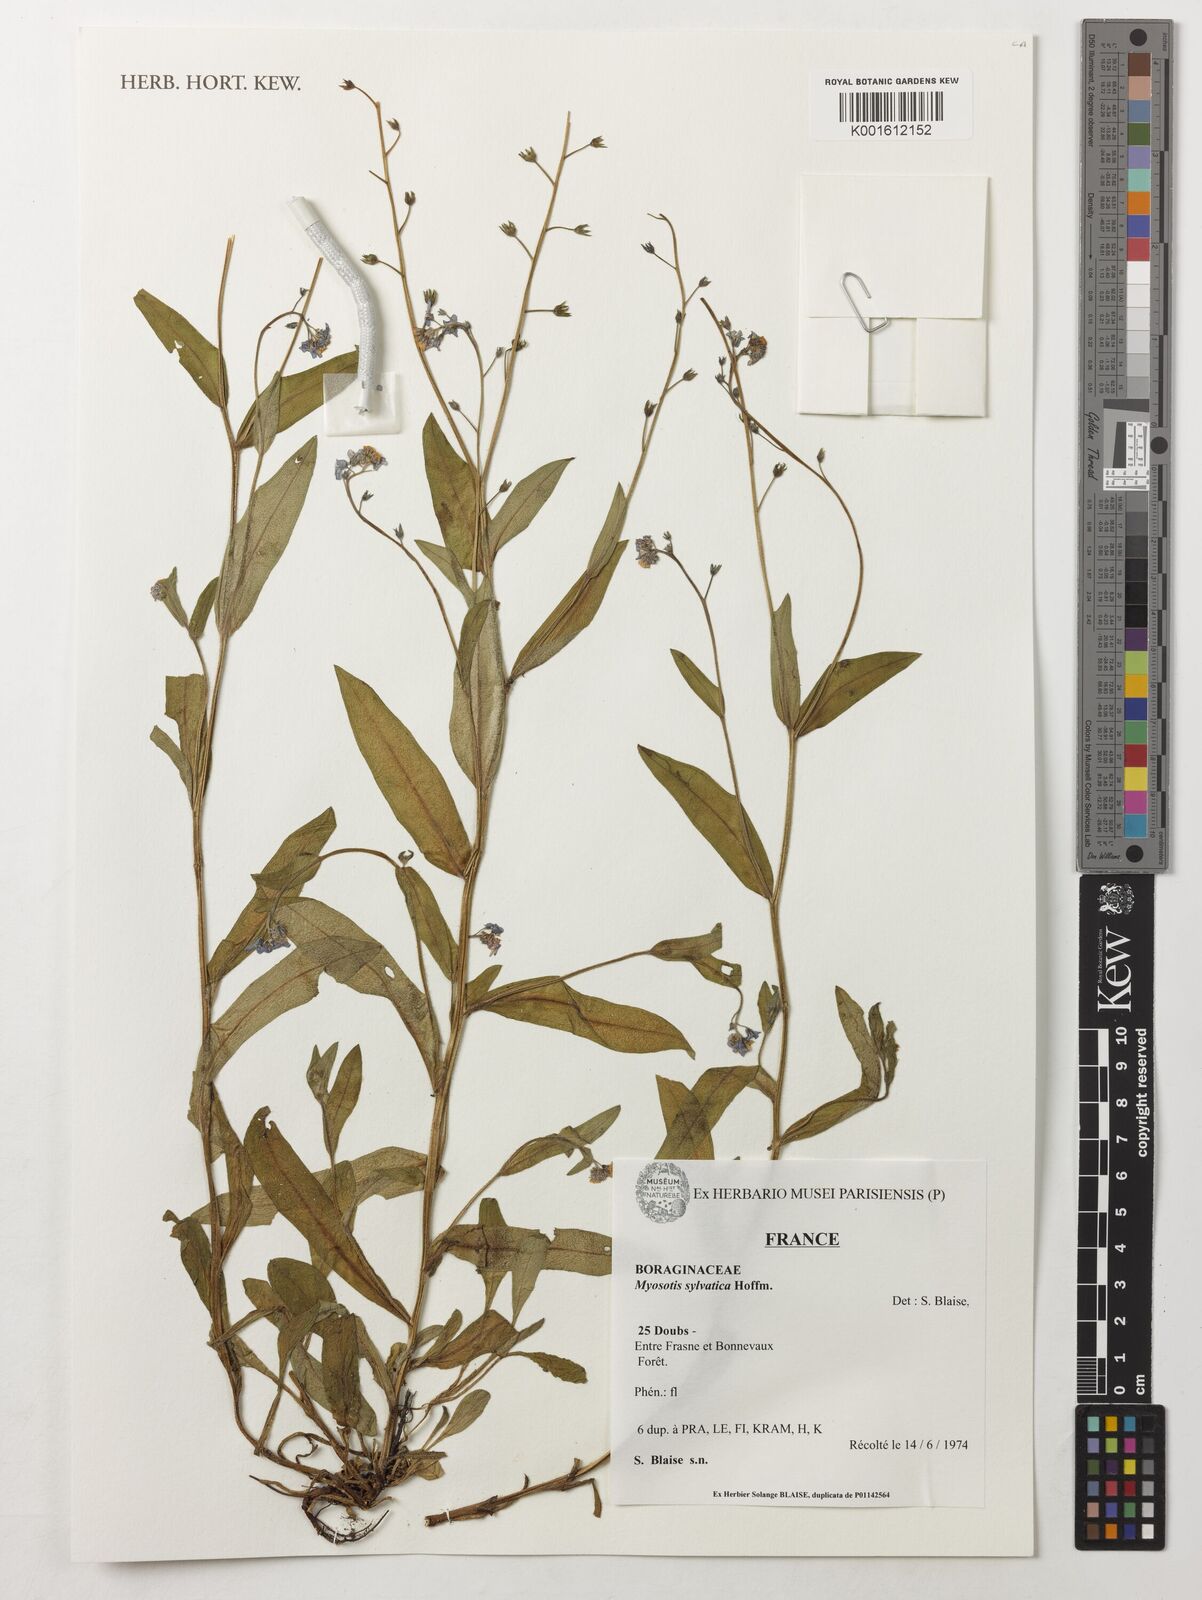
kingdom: Plantae
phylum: Tracheophyta
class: Magnoliopsida
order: Boraginales
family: Boraginaceae
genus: Myosotis
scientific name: Myosotis sylvatica
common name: Wood forget-me-not
